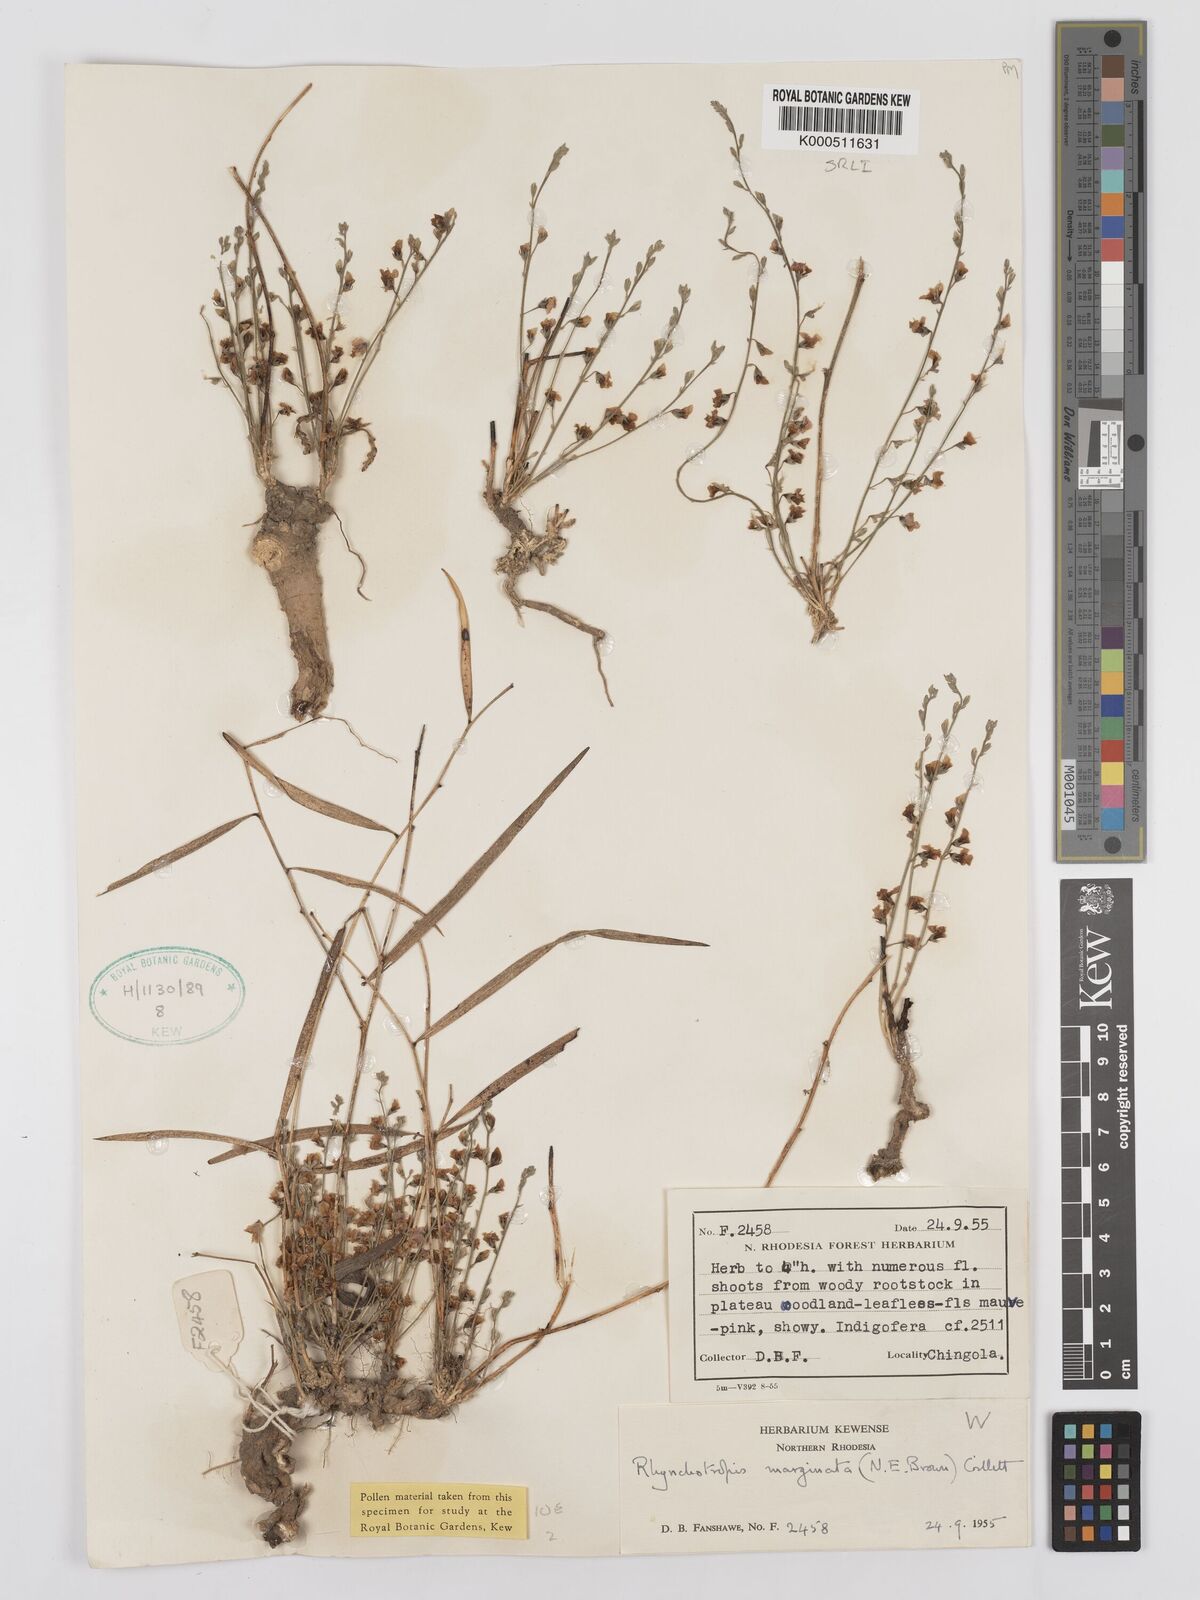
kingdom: Plantae
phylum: Tracheophyta
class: Magnoliopsida
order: Fabales
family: Fabaceae
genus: Rhynchotropis
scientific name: Rhynchotropis marginata
